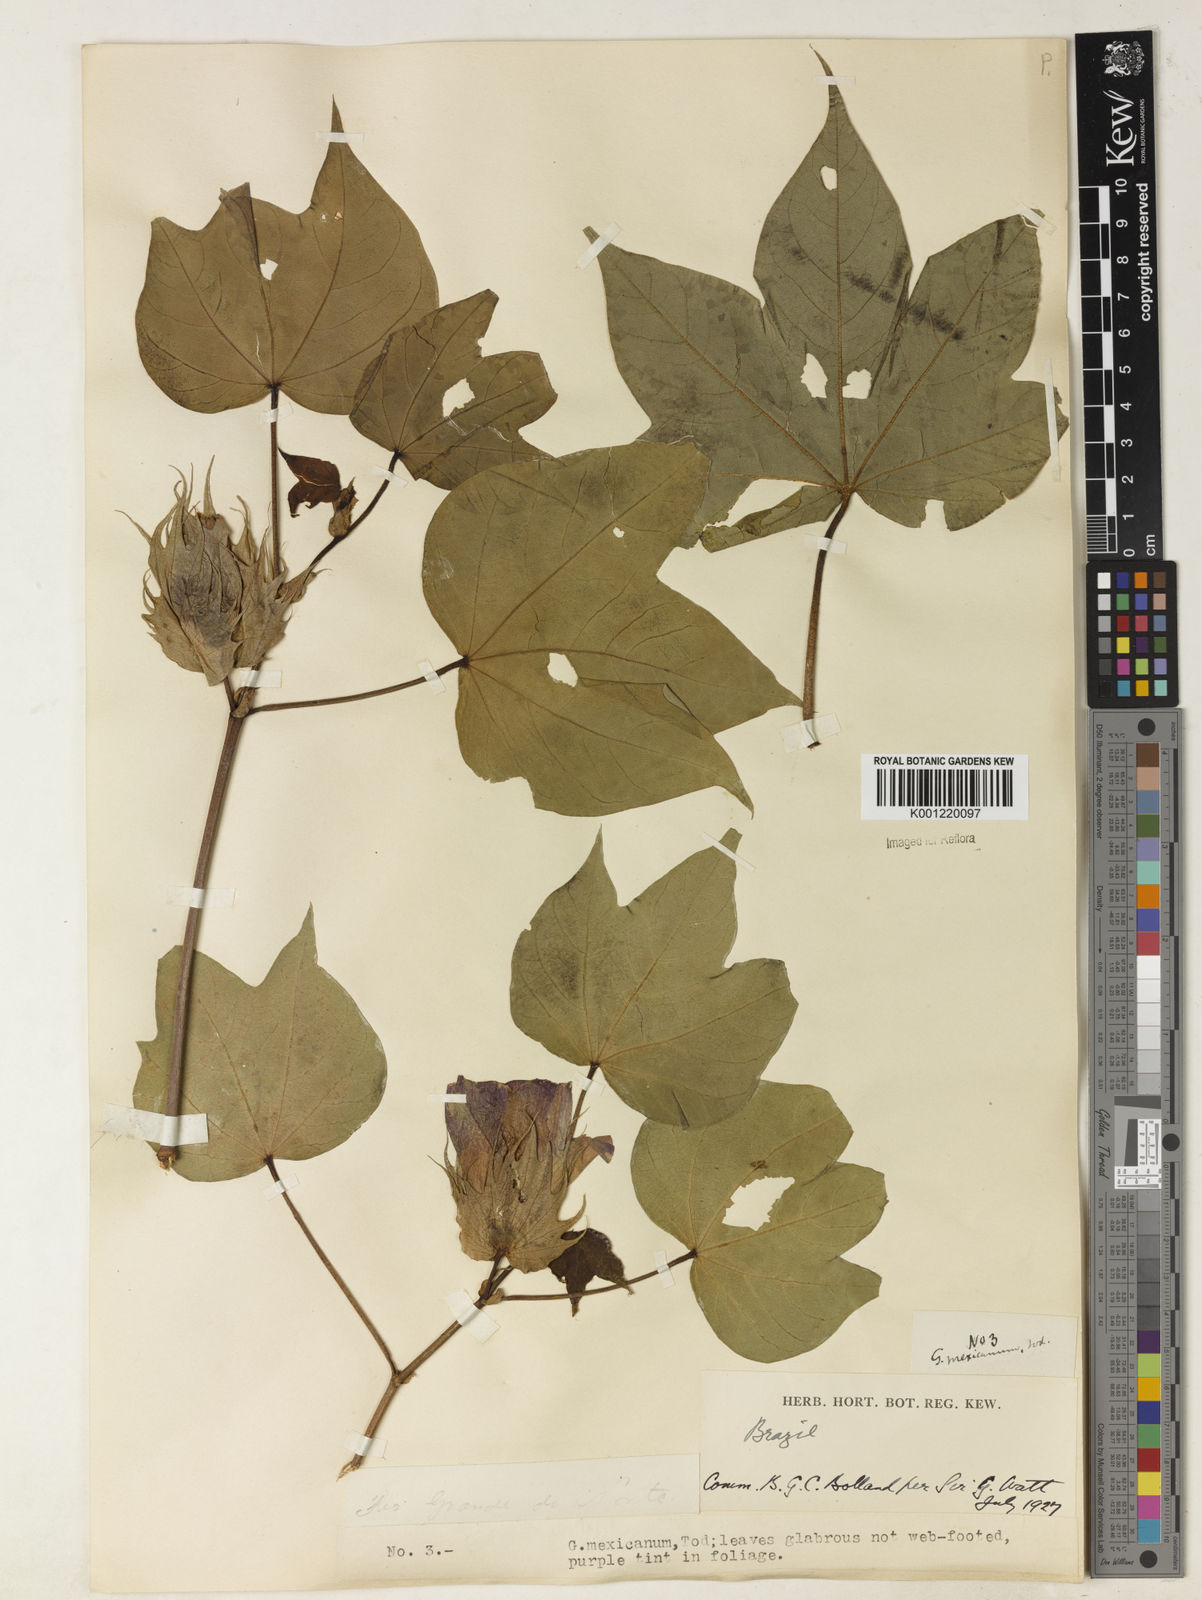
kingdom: Plantae
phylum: Tracheophyta
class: Magnoliopsida
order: Malvales
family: Malvaceae
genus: Gossypium
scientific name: Gossypium hirsutum
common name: Cotton
